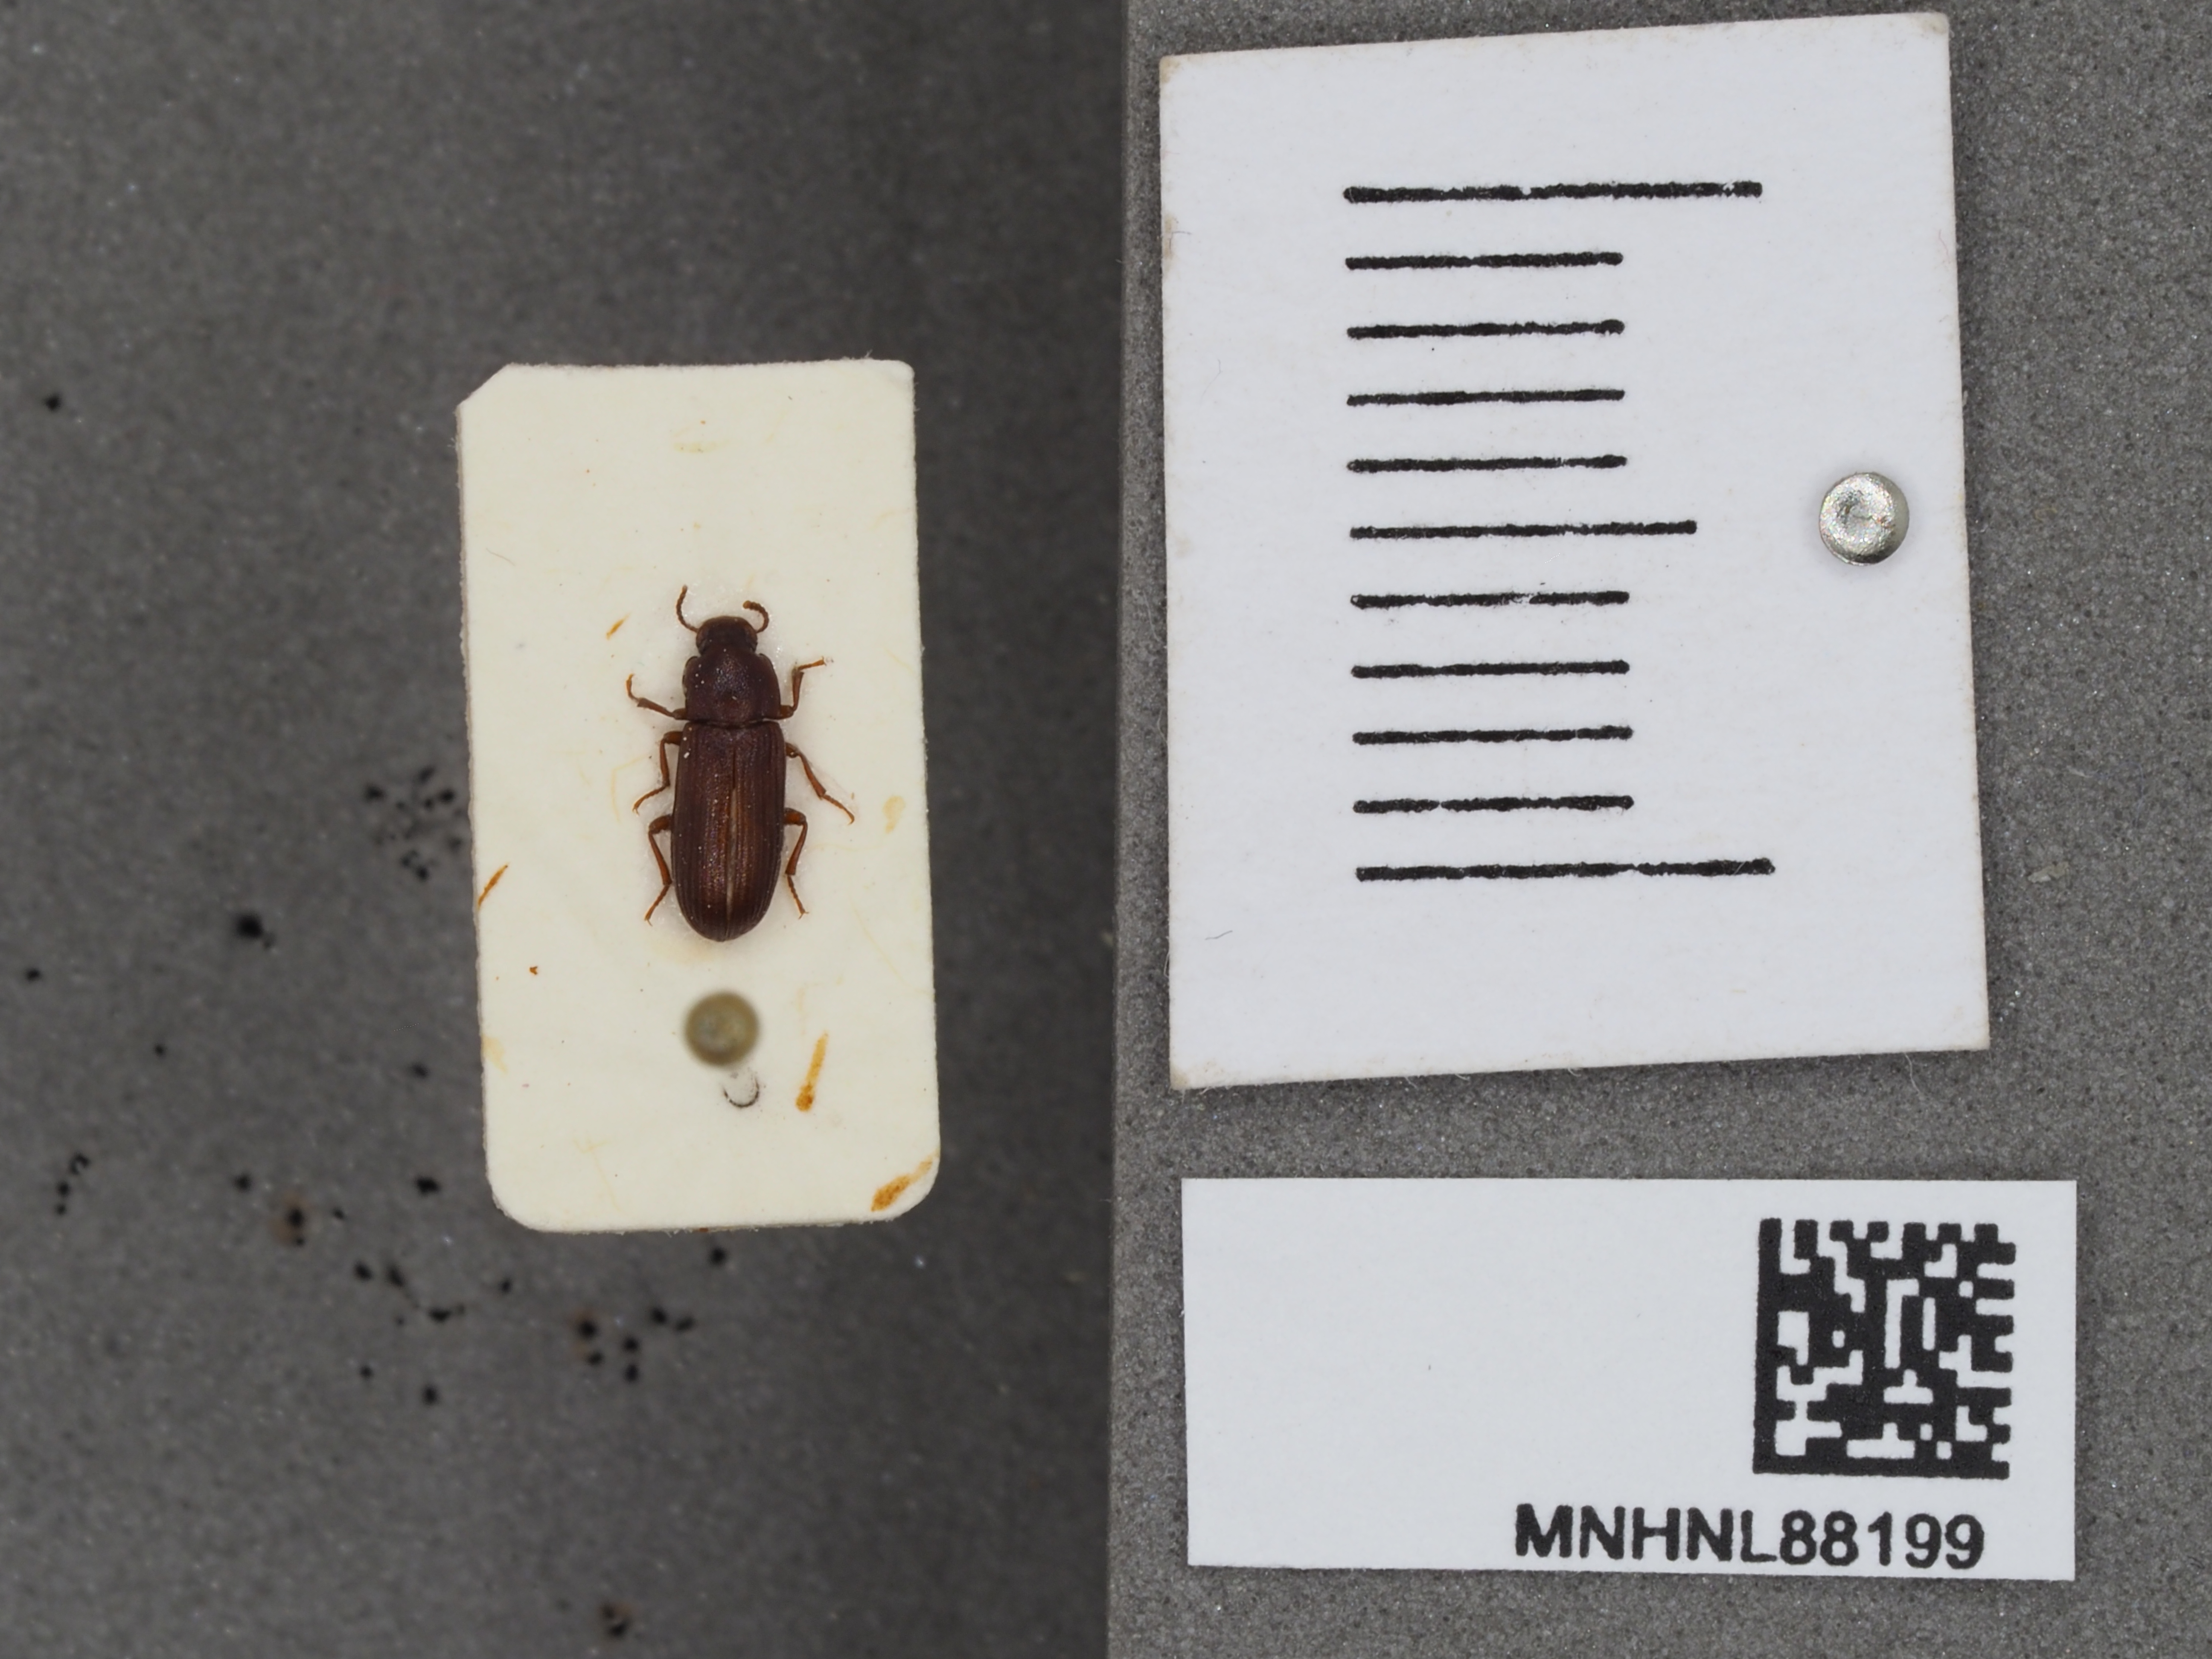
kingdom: Animalia
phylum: Arthropoda
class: Insecta
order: Coleoptera
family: Tenebrionidae
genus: Tribolium
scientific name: Tribolium destructor
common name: Darkling beetle
